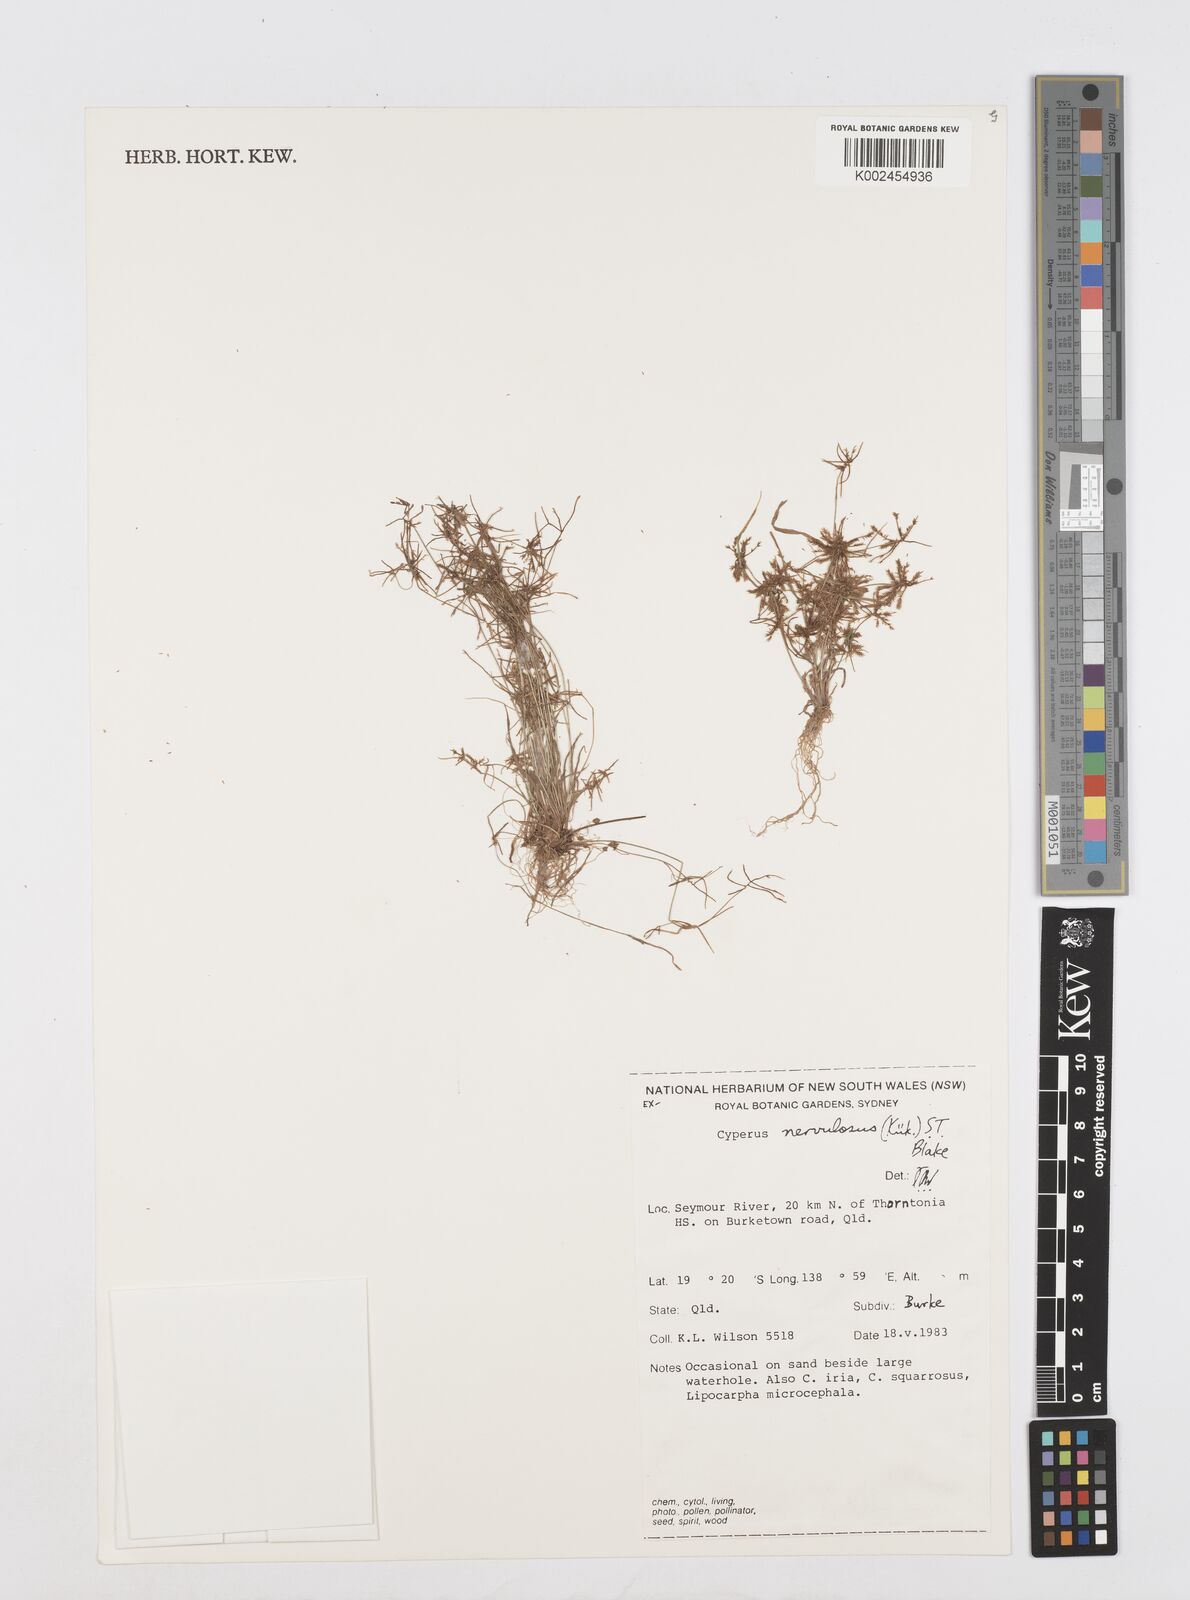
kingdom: Plantae
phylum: Tracheophyta
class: Liliopsida
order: Poales
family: Cyperaceae
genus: Cyperus
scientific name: Cyperus nervulosus
